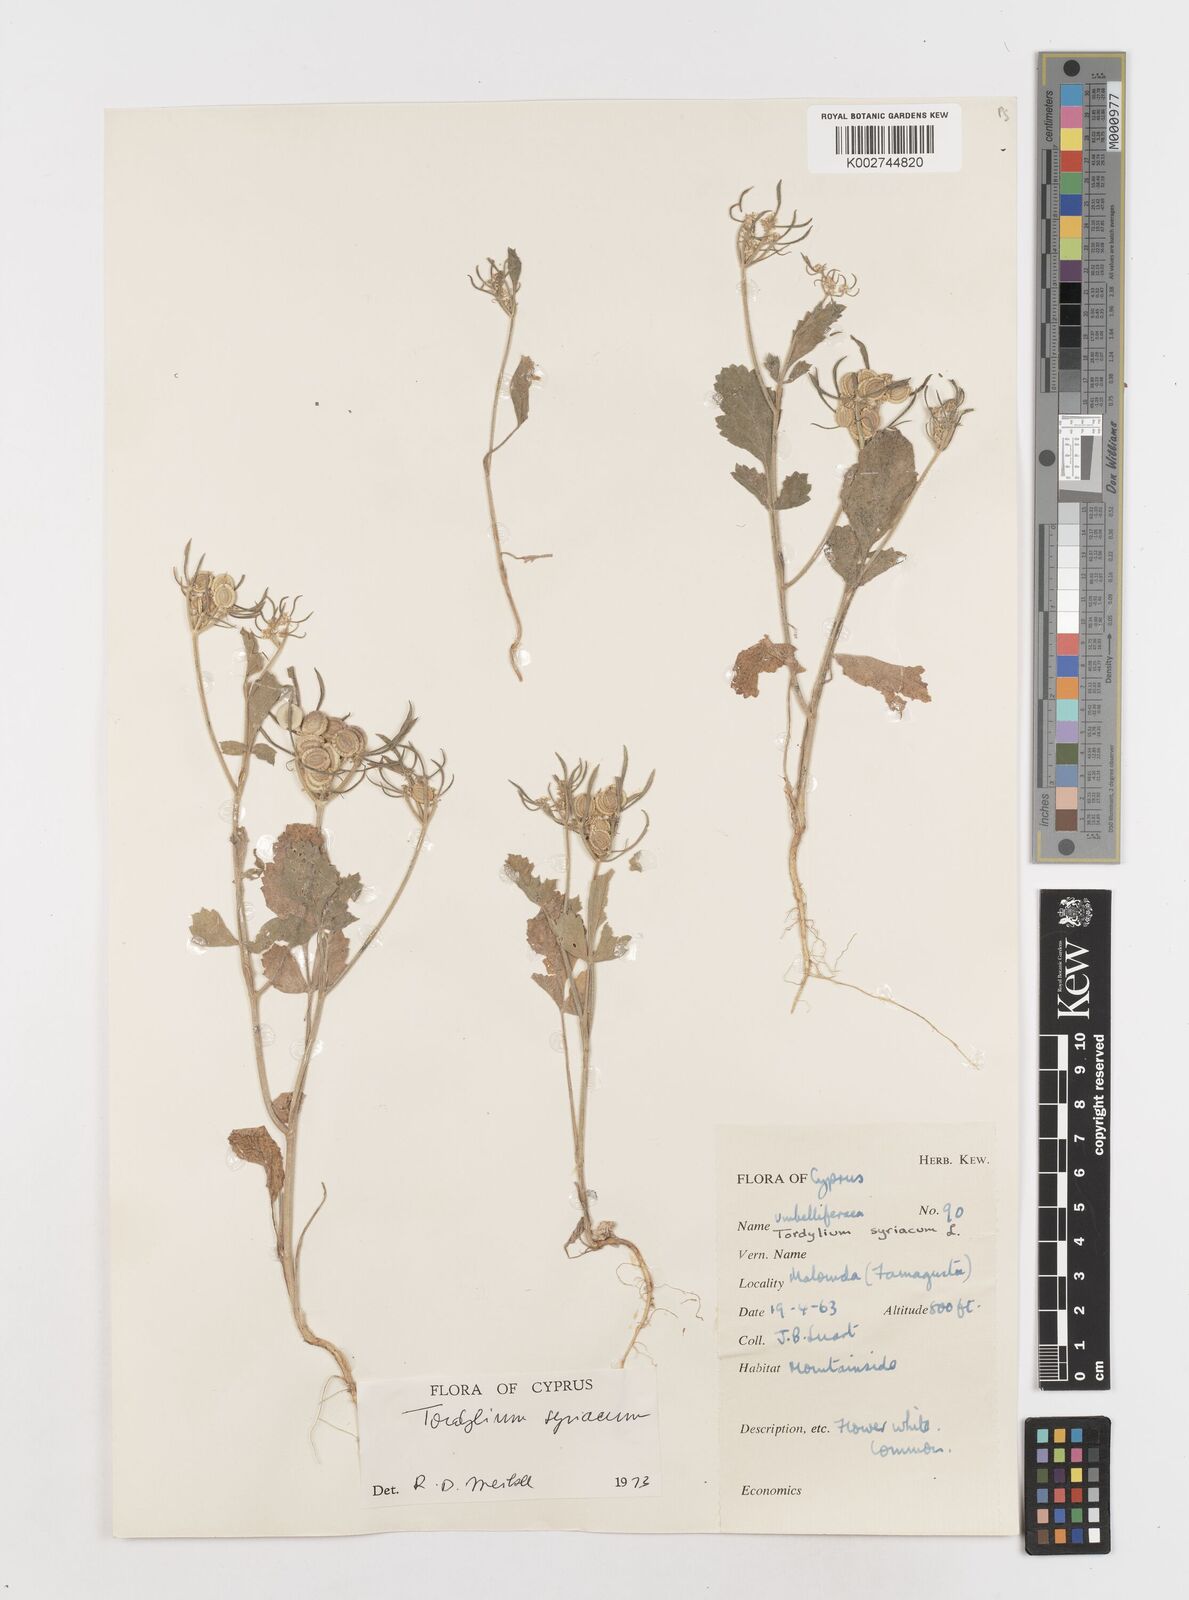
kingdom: Plantae
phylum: Tracheophyta
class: Magnoliopsida
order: Apiales
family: Apiaceae
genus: Tordylium
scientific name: Tordylium syriacum
